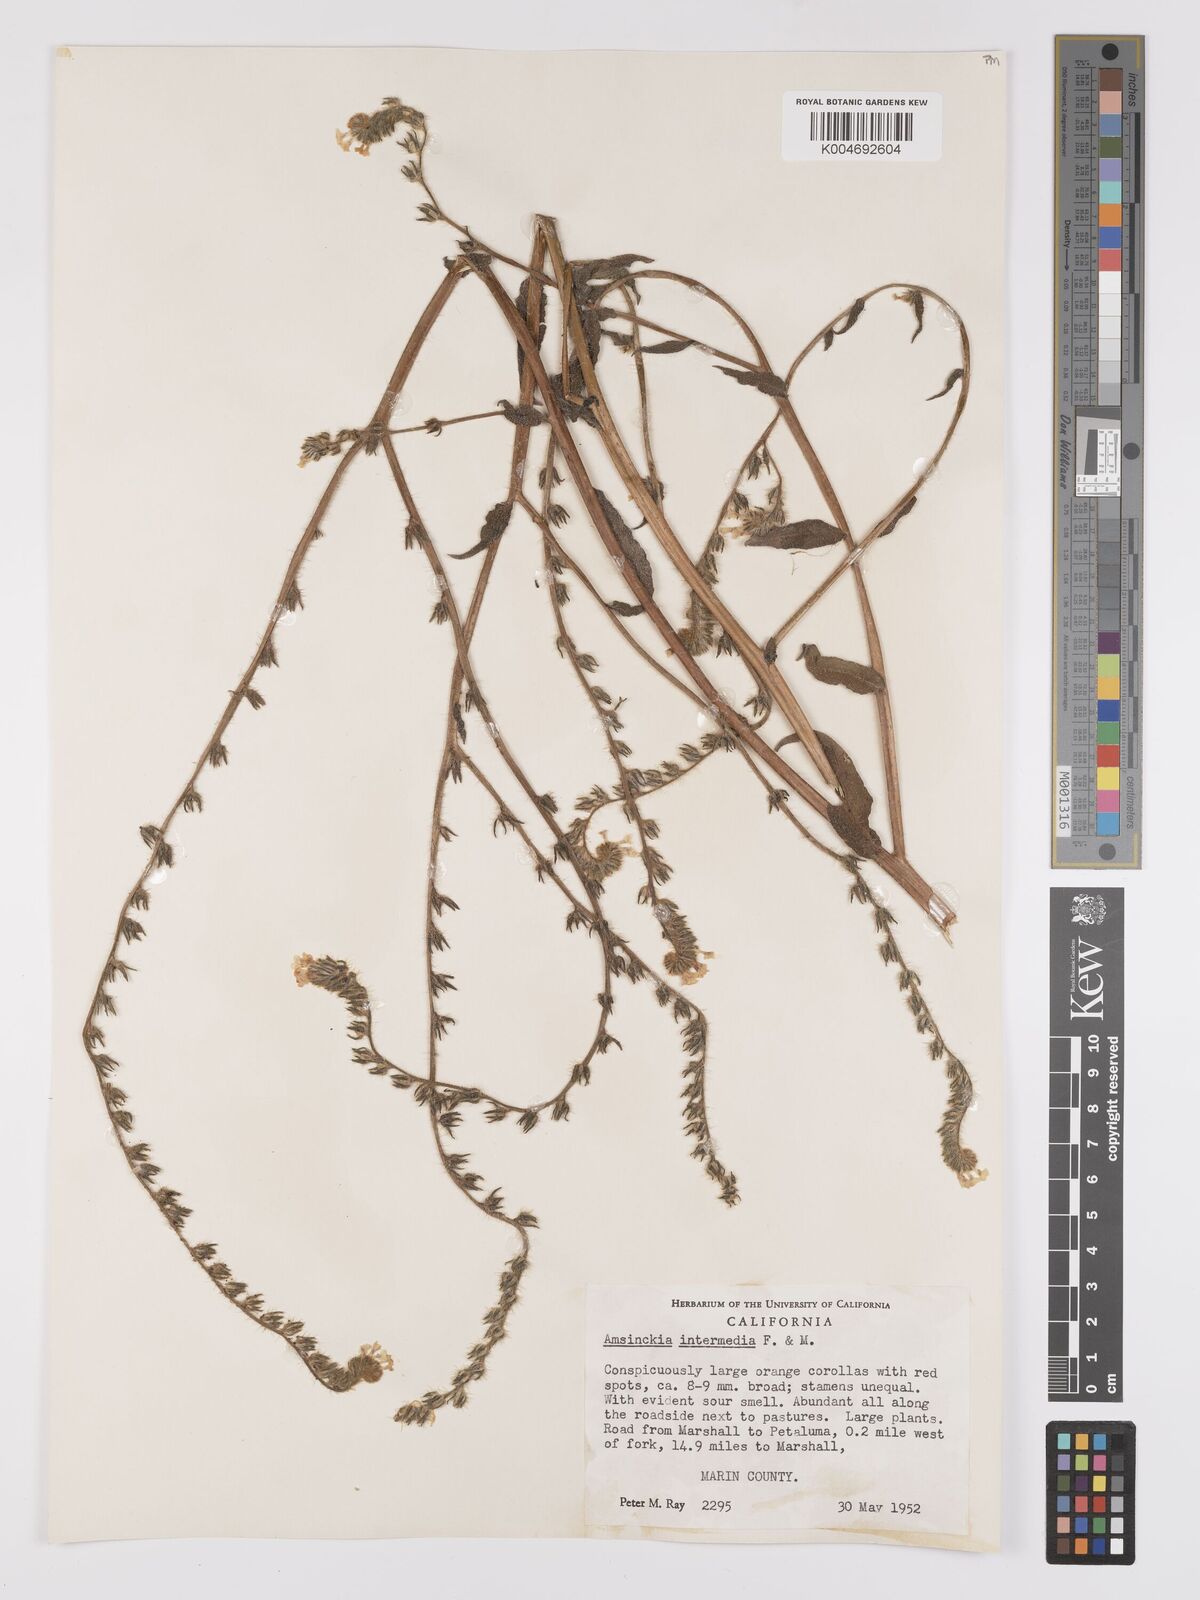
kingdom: Plantae
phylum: Tracheophyta
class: Magnoliopsida
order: Boraginales
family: Boraginaceae
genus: Amsinckia
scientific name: Amsinckia menziesii
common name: Menzies' fiddleneck
